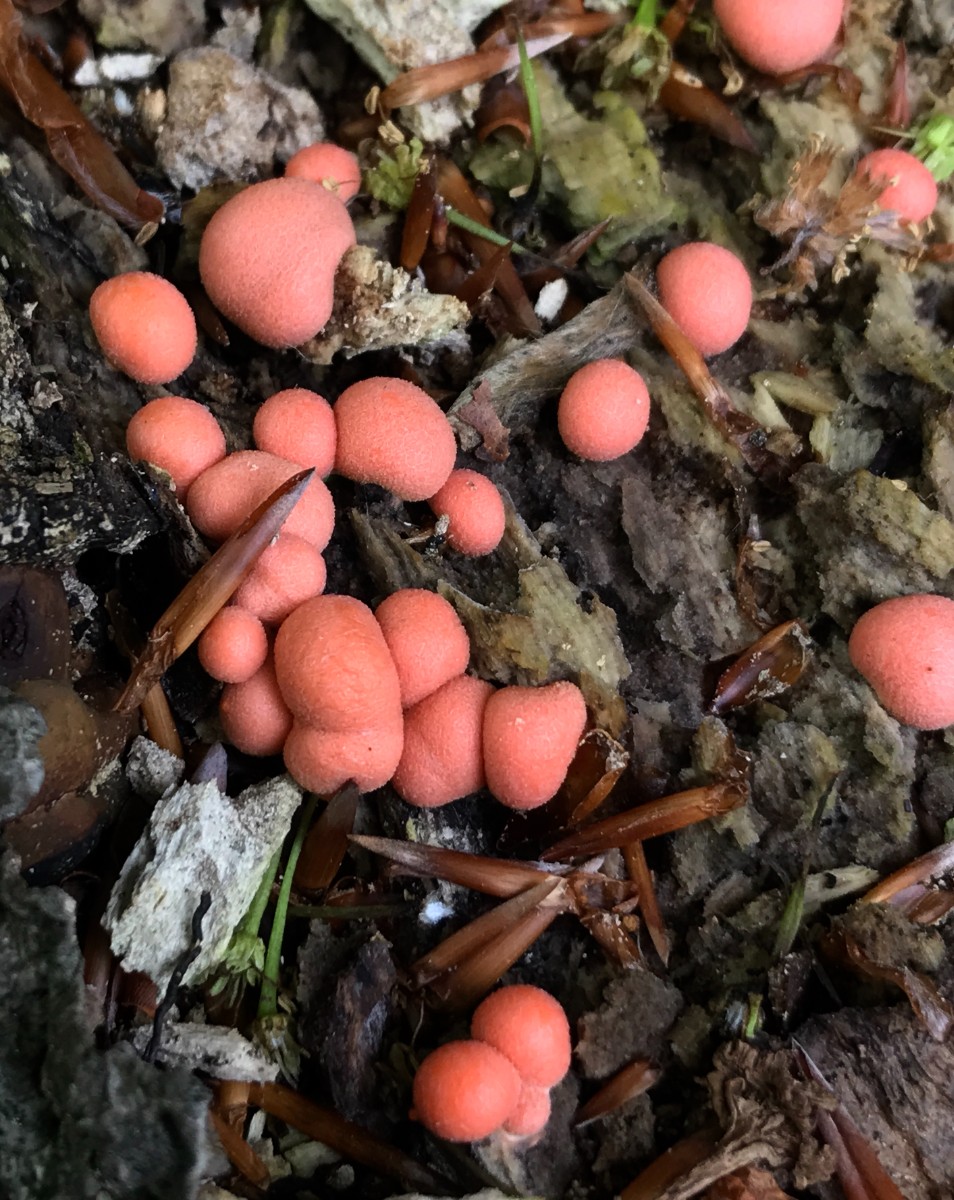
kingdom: Protozoa
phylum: Mycetozoa
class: Myxomycetes
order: Cribrariales
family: Tubiferaceae
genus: Lycogala
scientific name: Lycogala epidendrum
